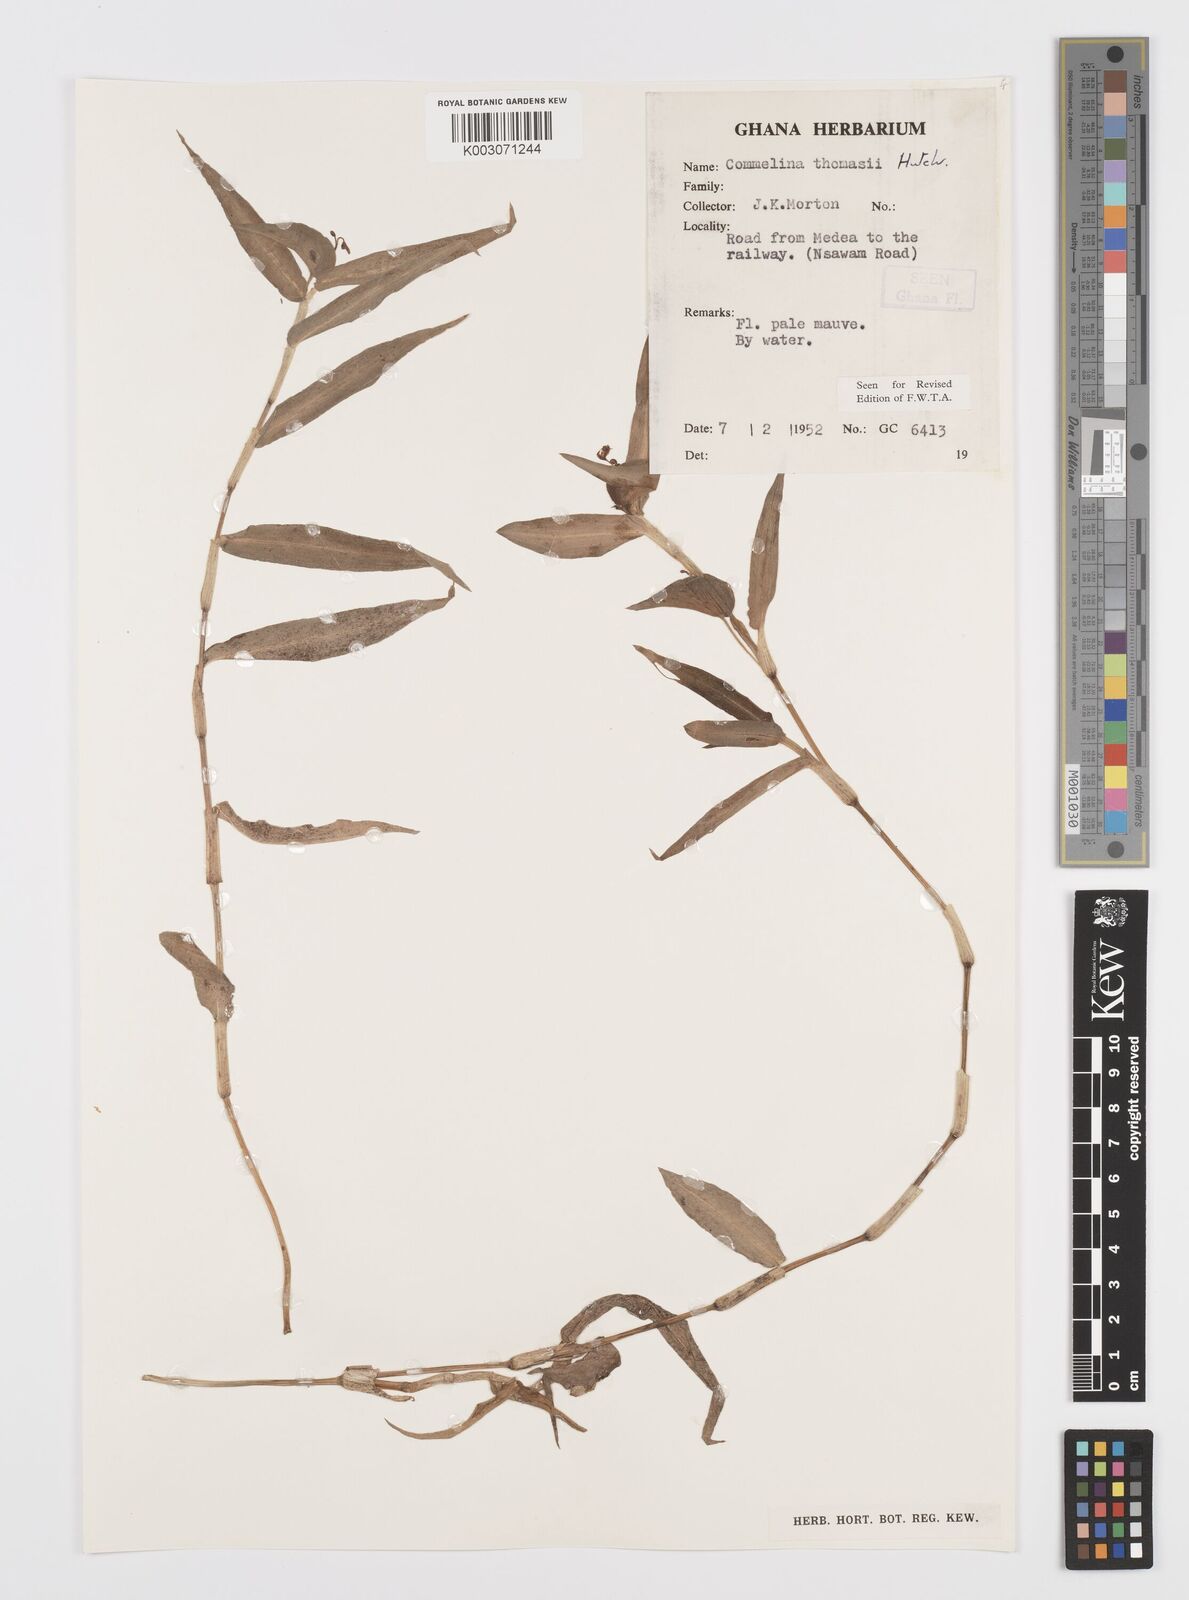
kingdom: Plantae
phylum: Tracheophyta
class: Liliopsida
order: Commelinales
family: Commelinaceae
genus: Commelina
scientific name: Commelina acutispatha
